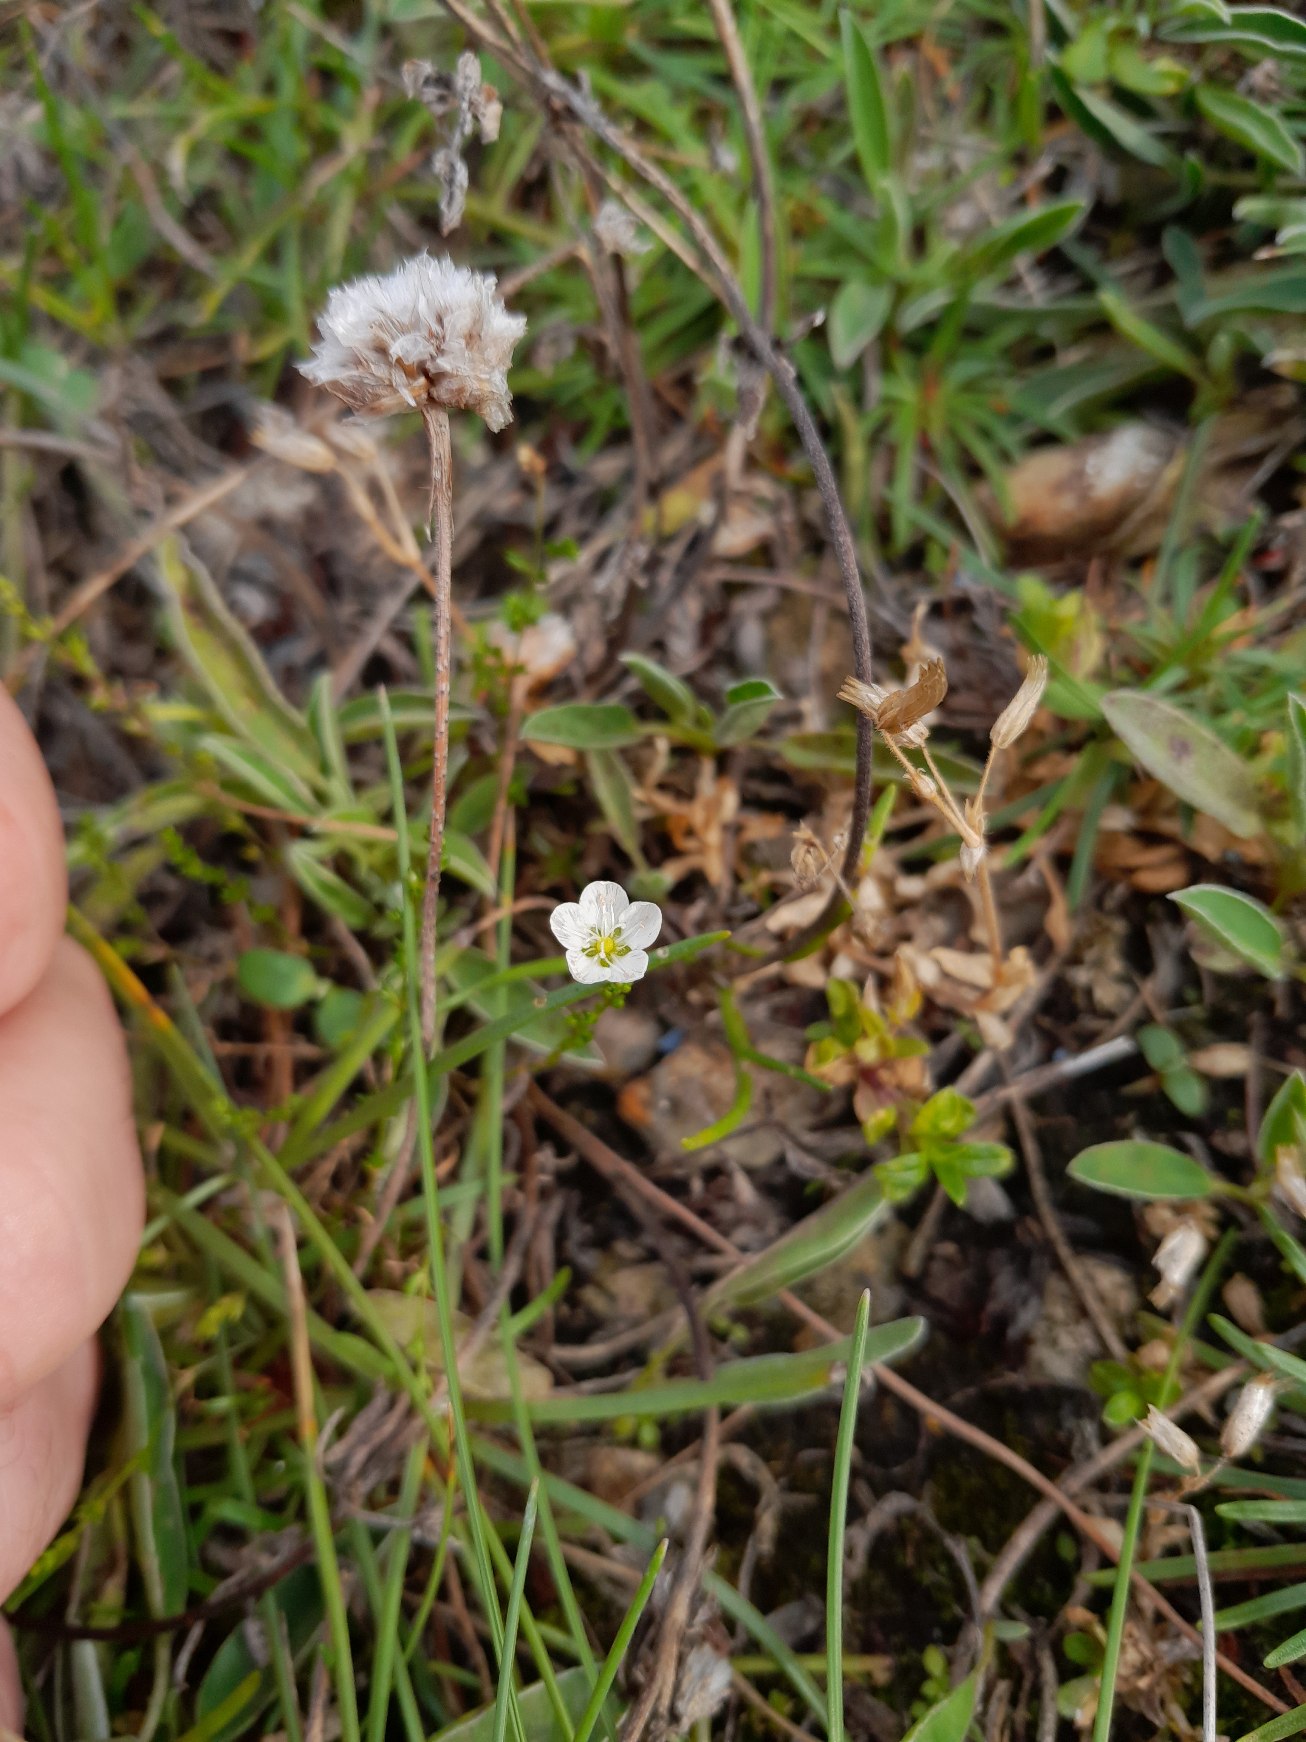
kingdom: Plantae
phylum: Tracheophyta
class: Magnoliopsida
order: Caryophyllales
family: Caryophyllaceae
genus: Sagina
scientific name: Sagina nodosa
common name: Nordlig knude-firling
